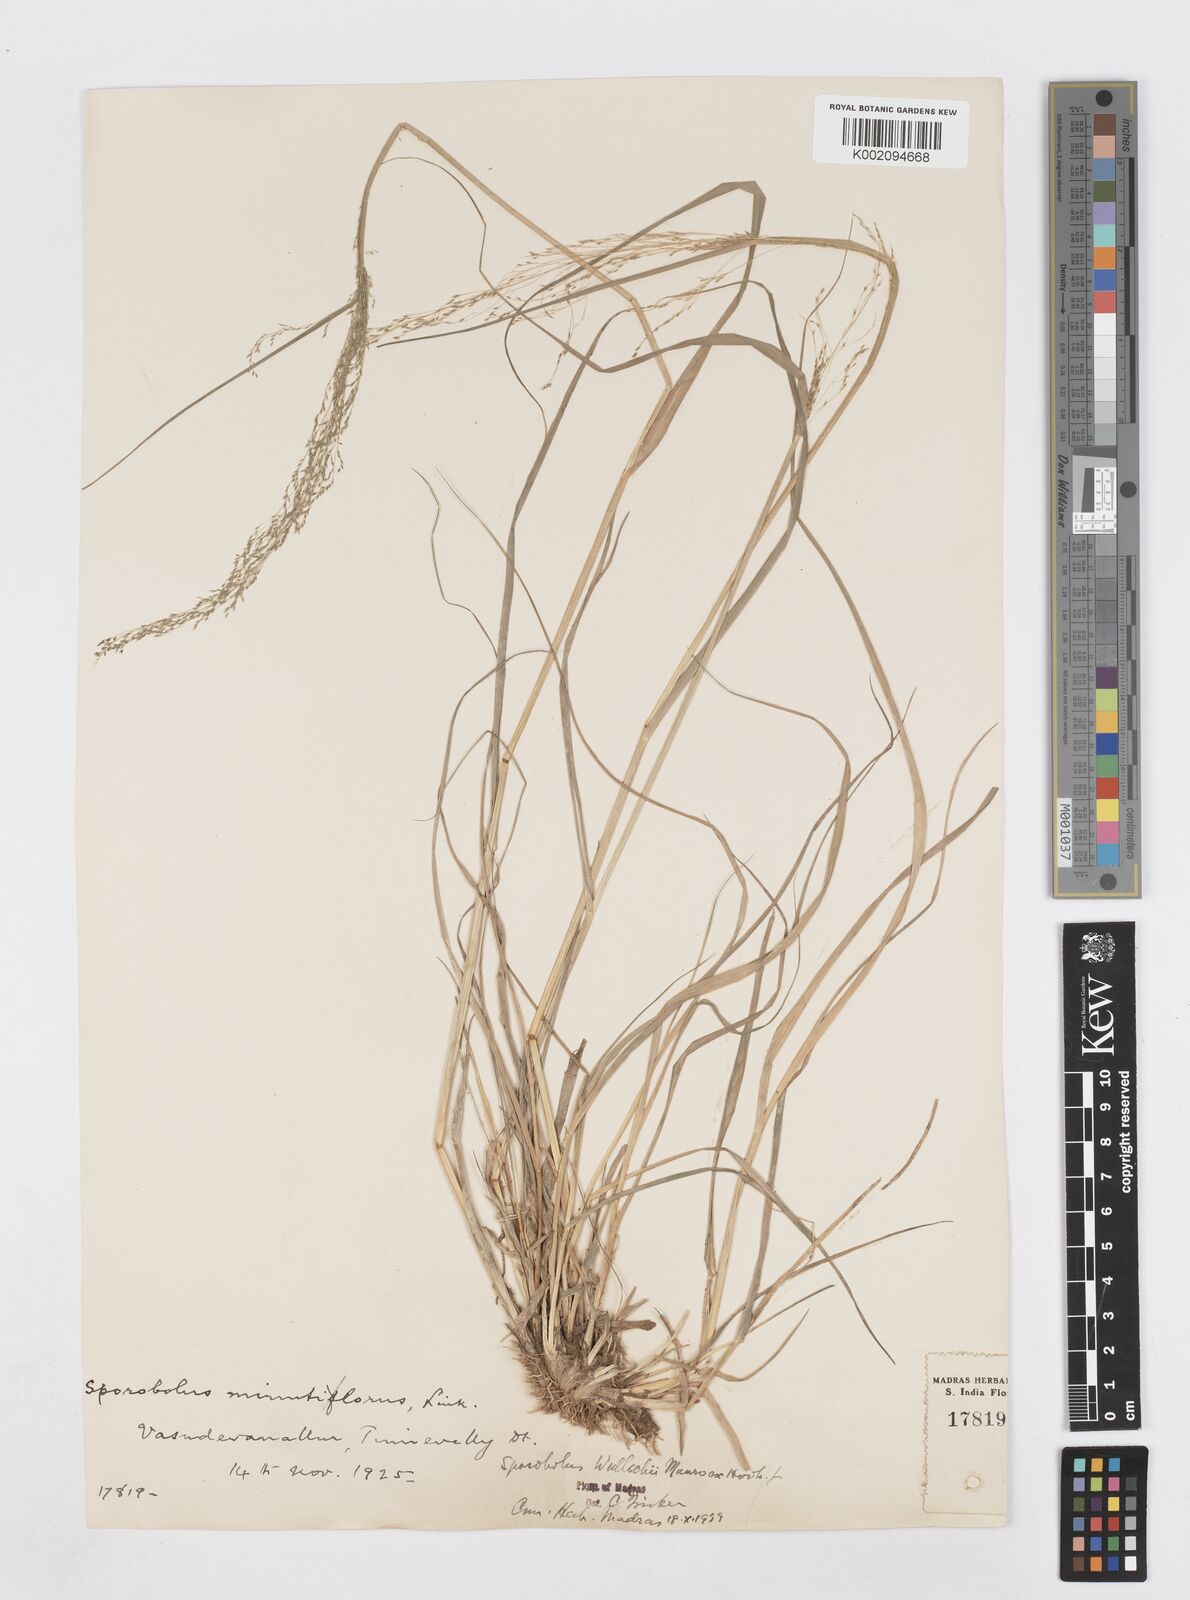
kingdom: Plantae
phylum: Tracheophyta
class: Liliopsida
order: Poales
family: Poaceae
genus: Sporobolus
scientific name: Sporobolus wallichii
